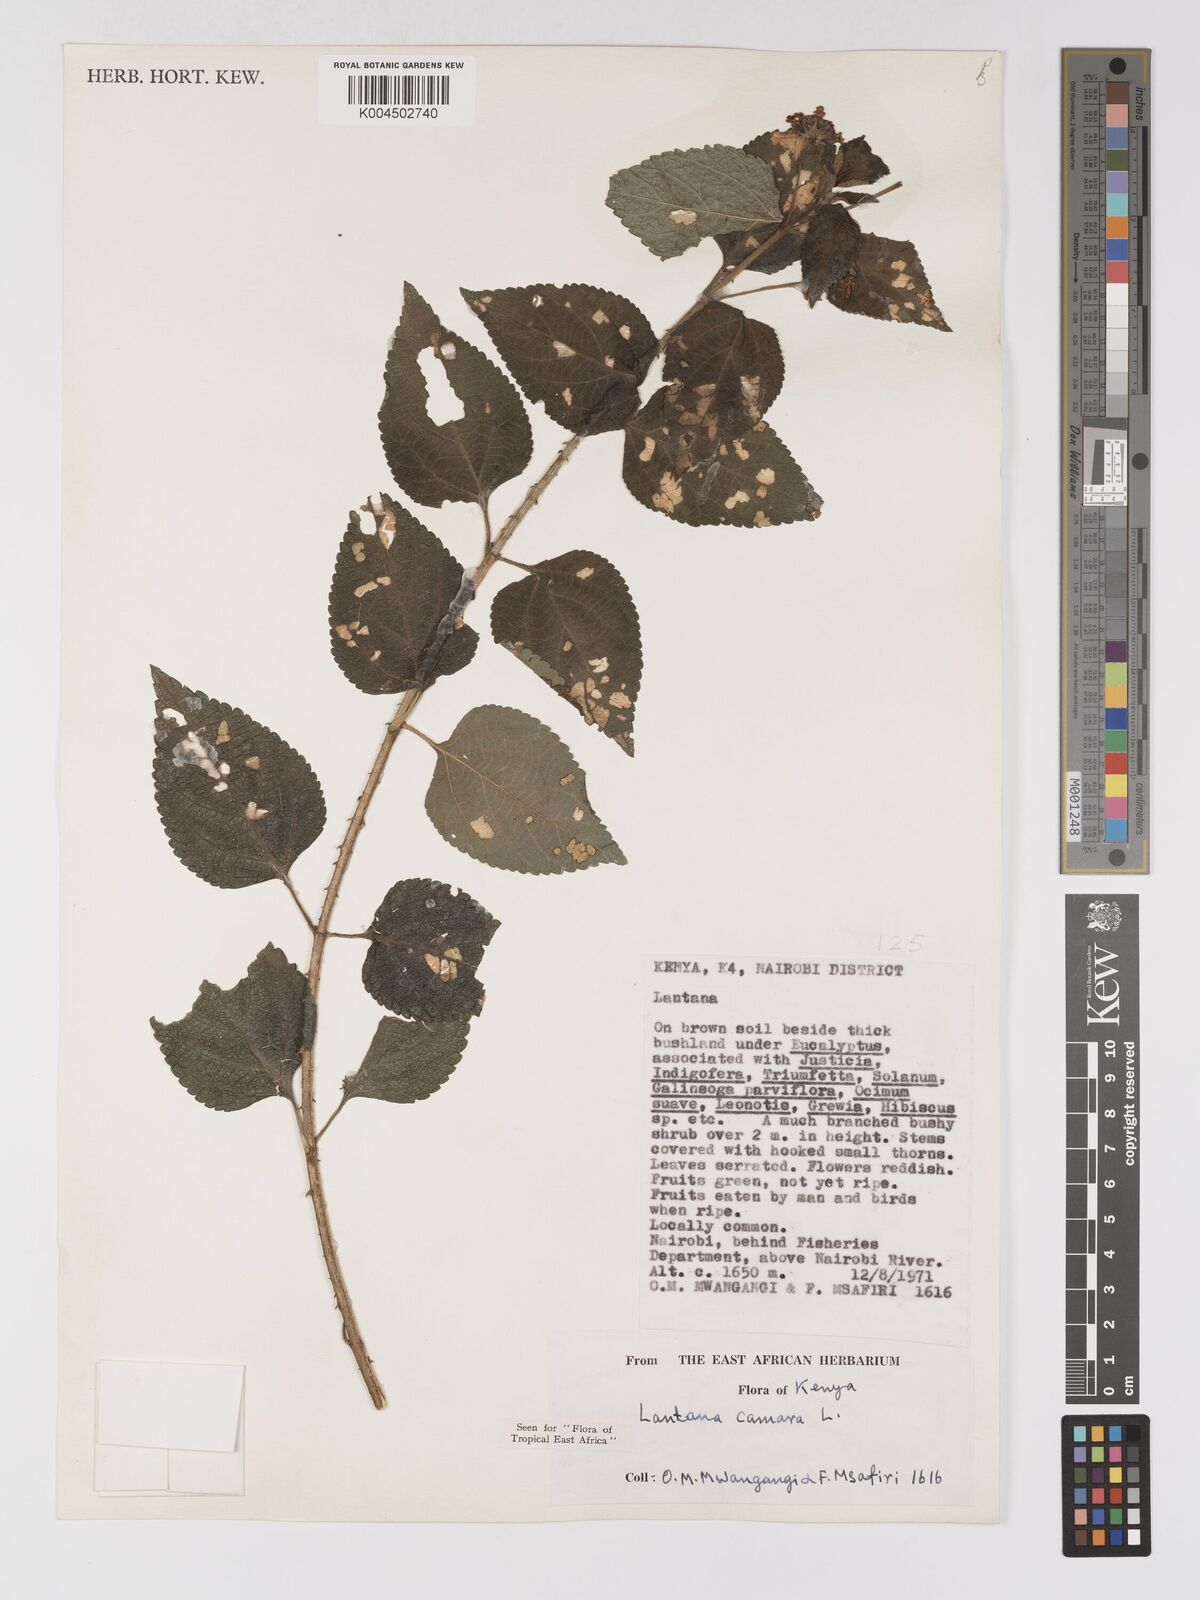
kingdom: Plantae
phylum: Tracheophyta
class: Magnoliopsida
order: Lamiales
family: Verbenaceae
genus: Lantana
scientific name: Lantana camara
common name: Lantana
